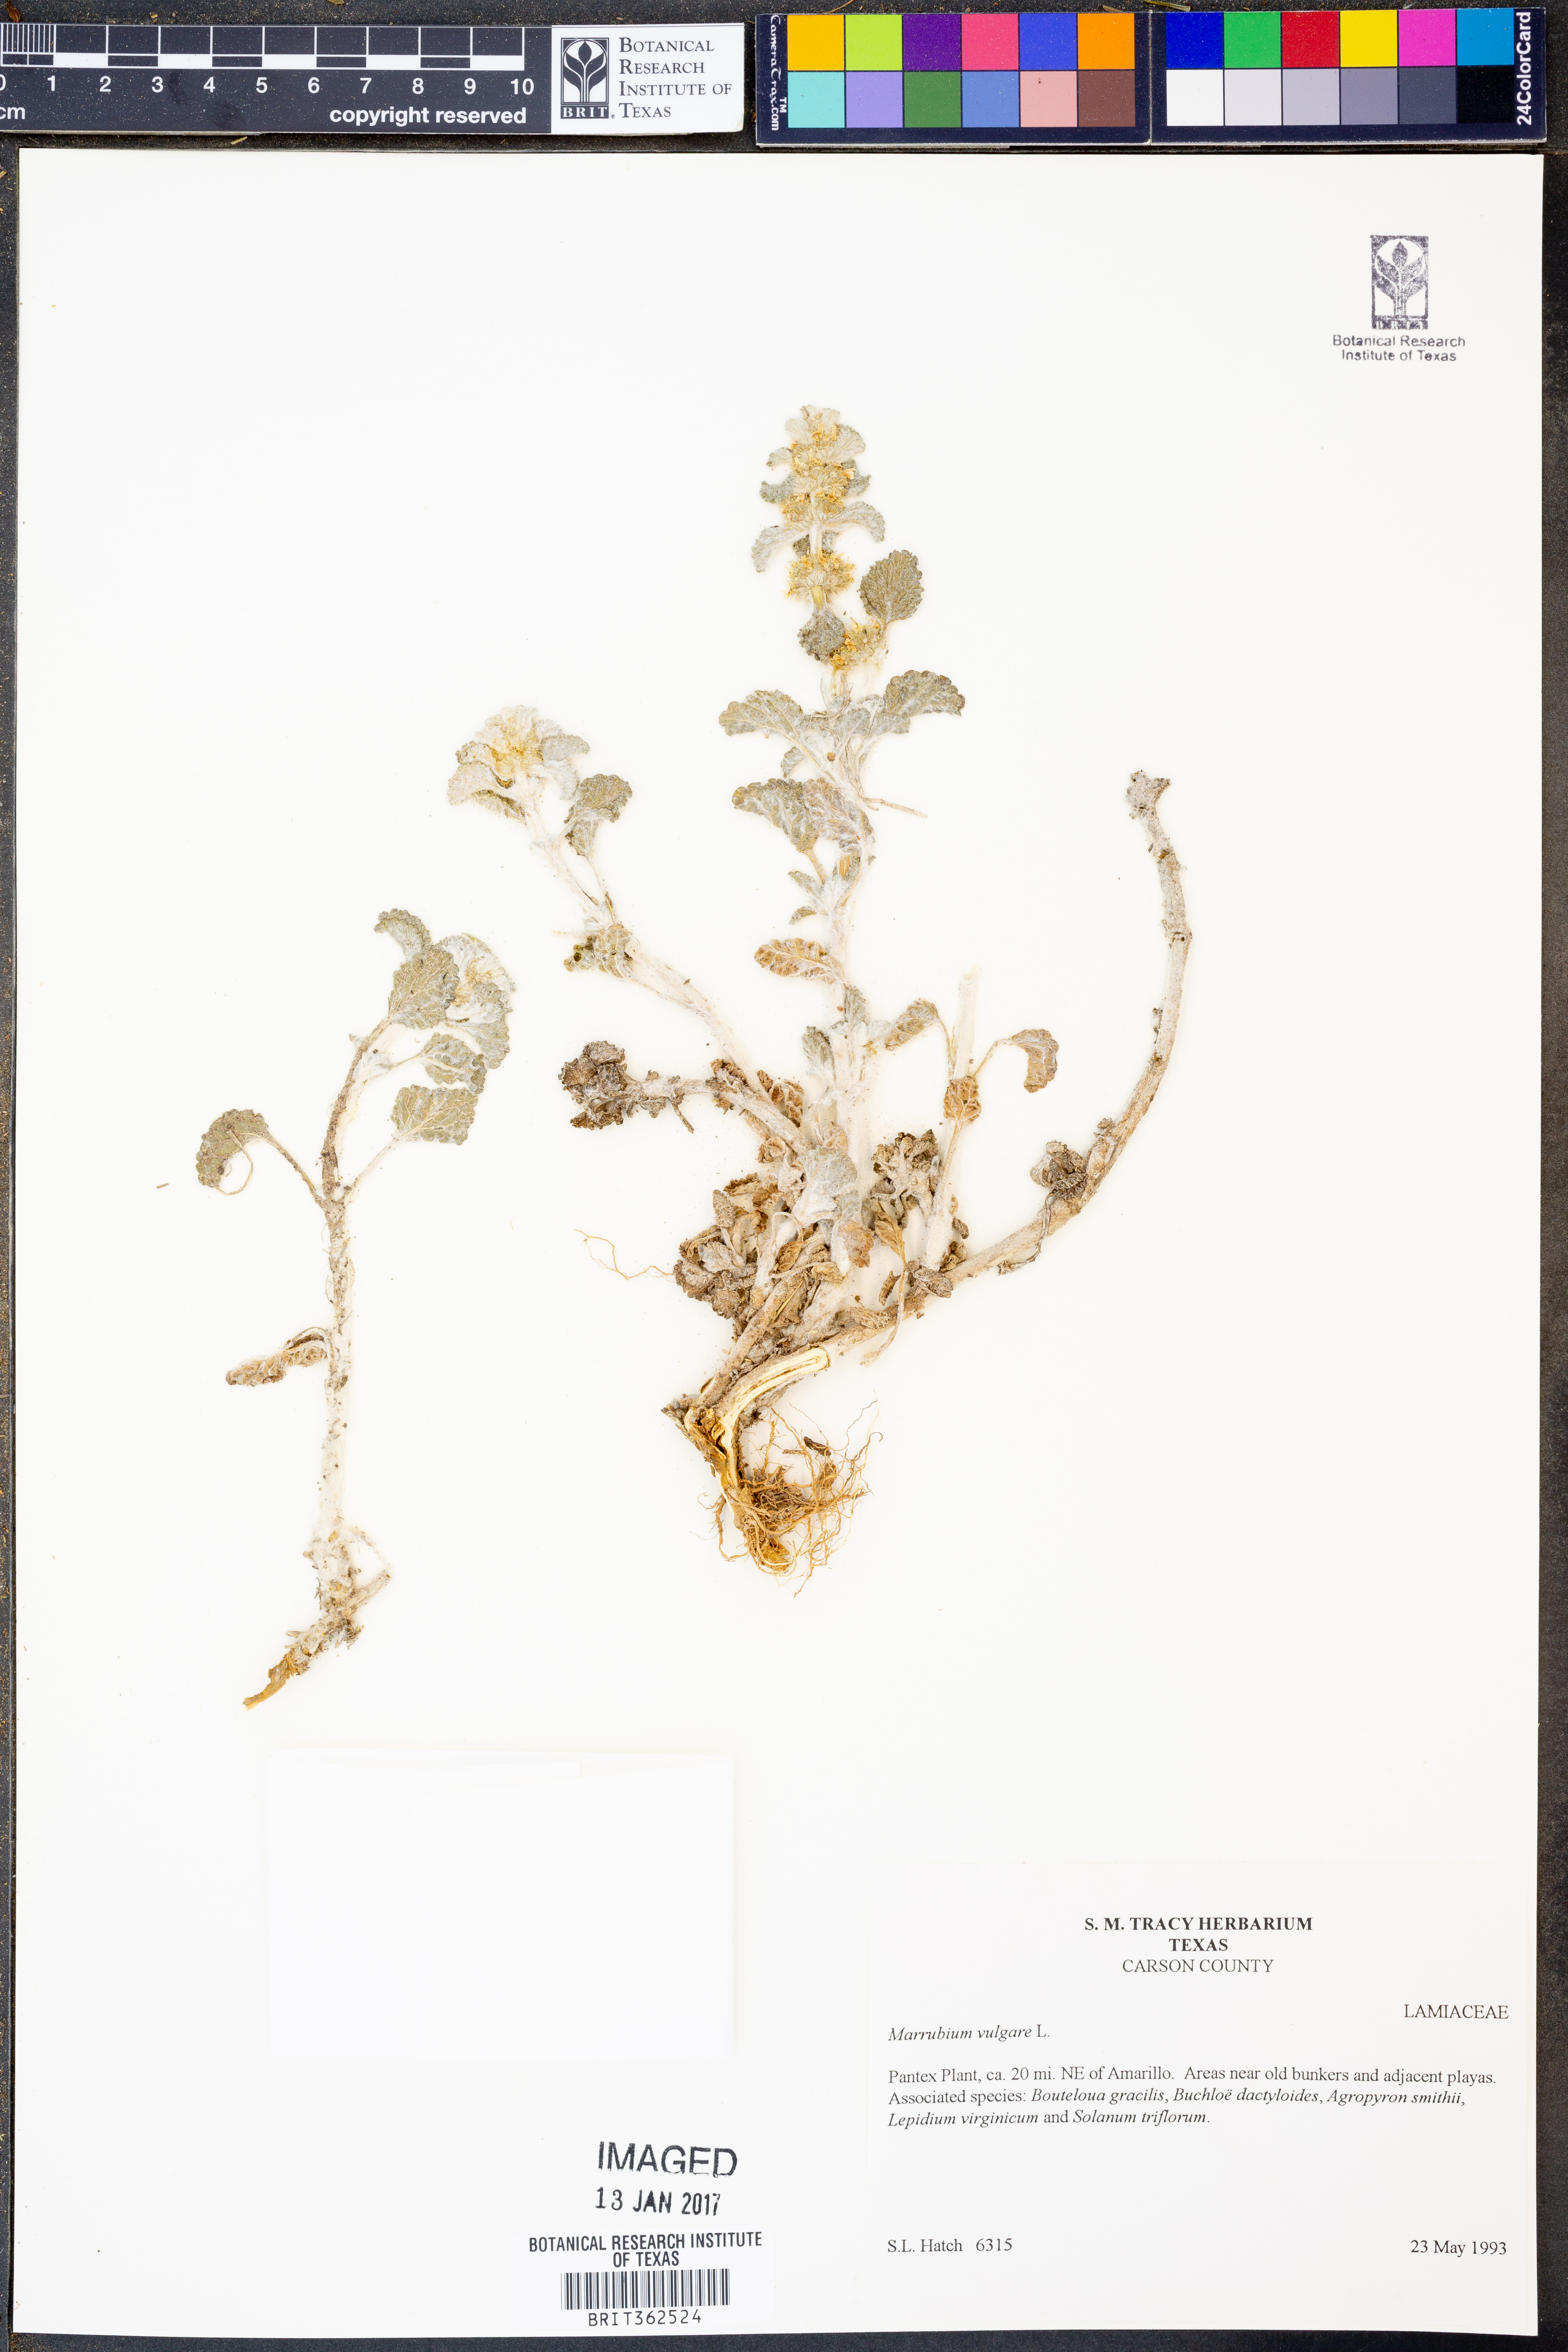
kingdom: Plantae
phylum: Tracheophyta
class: Magnoliopsida
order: Lamiales
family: Lamiaceae
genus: Marrubium
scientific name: Marrubium vulgare
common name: Horehound
